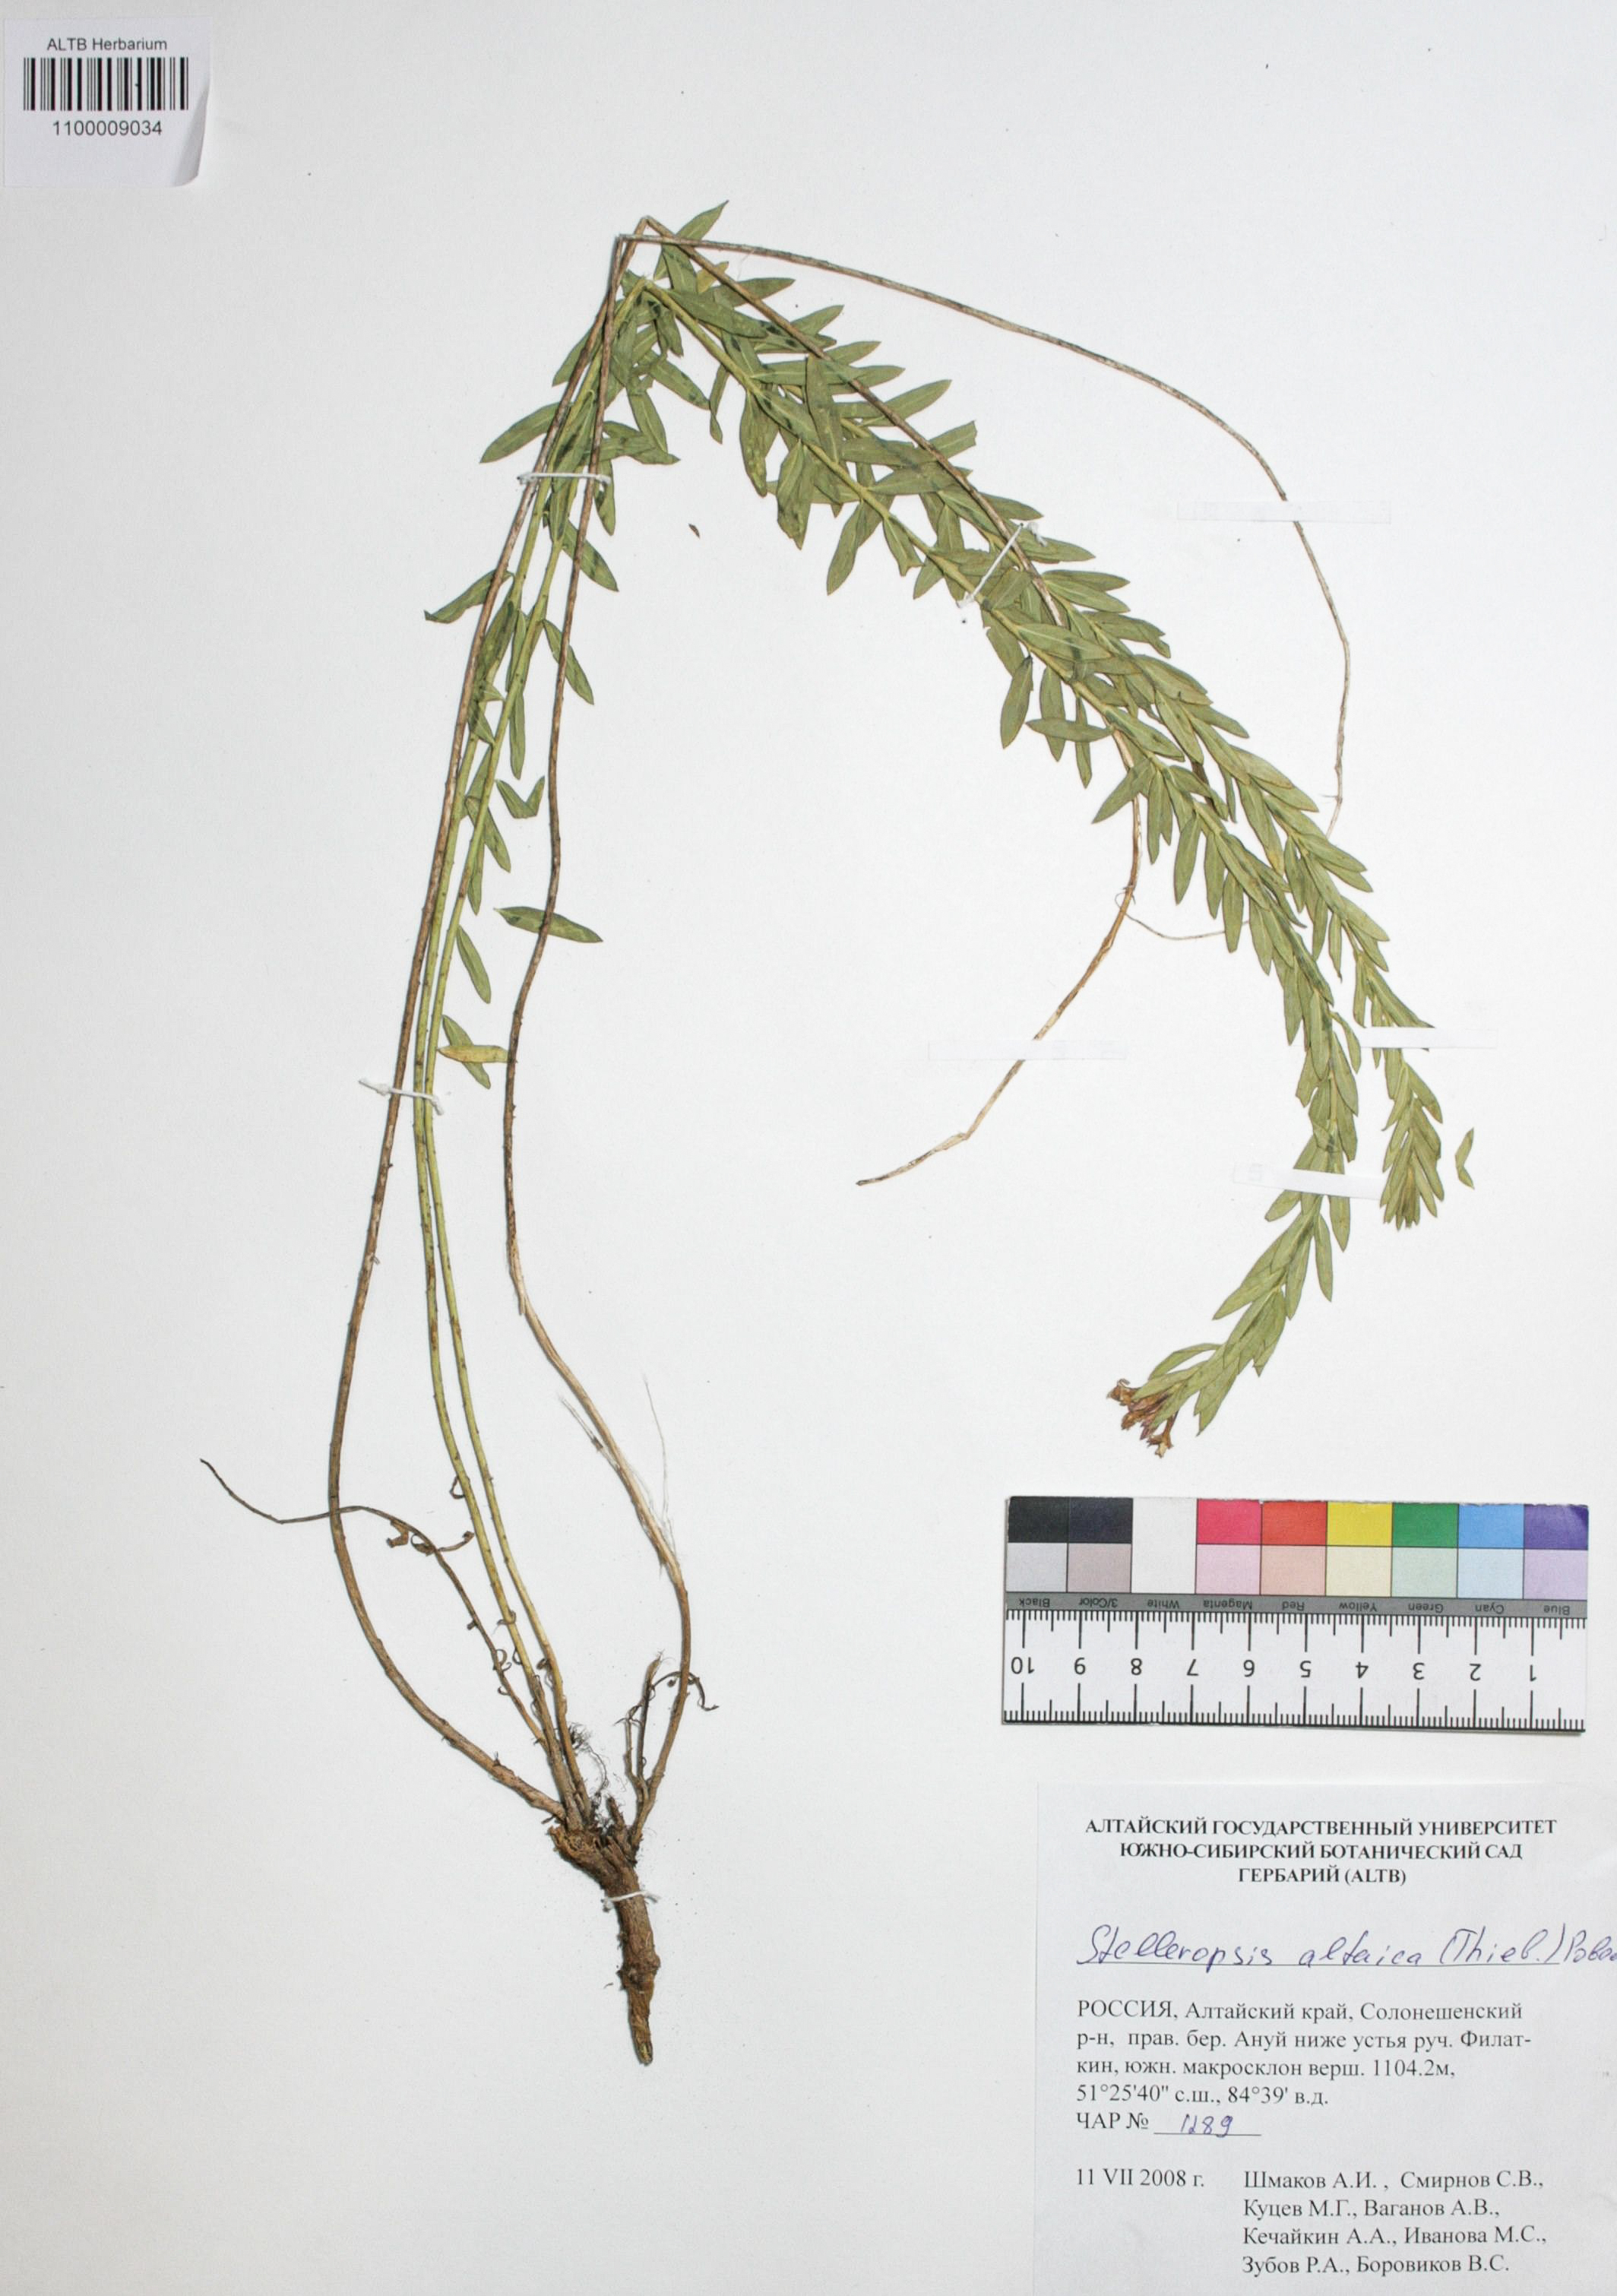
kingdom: Plantae
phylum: Tracheophyta
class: Magnoliopsida
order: Malvales
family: Thymelaeaceae
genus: Diarthron
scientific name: Diarthron altaicum
